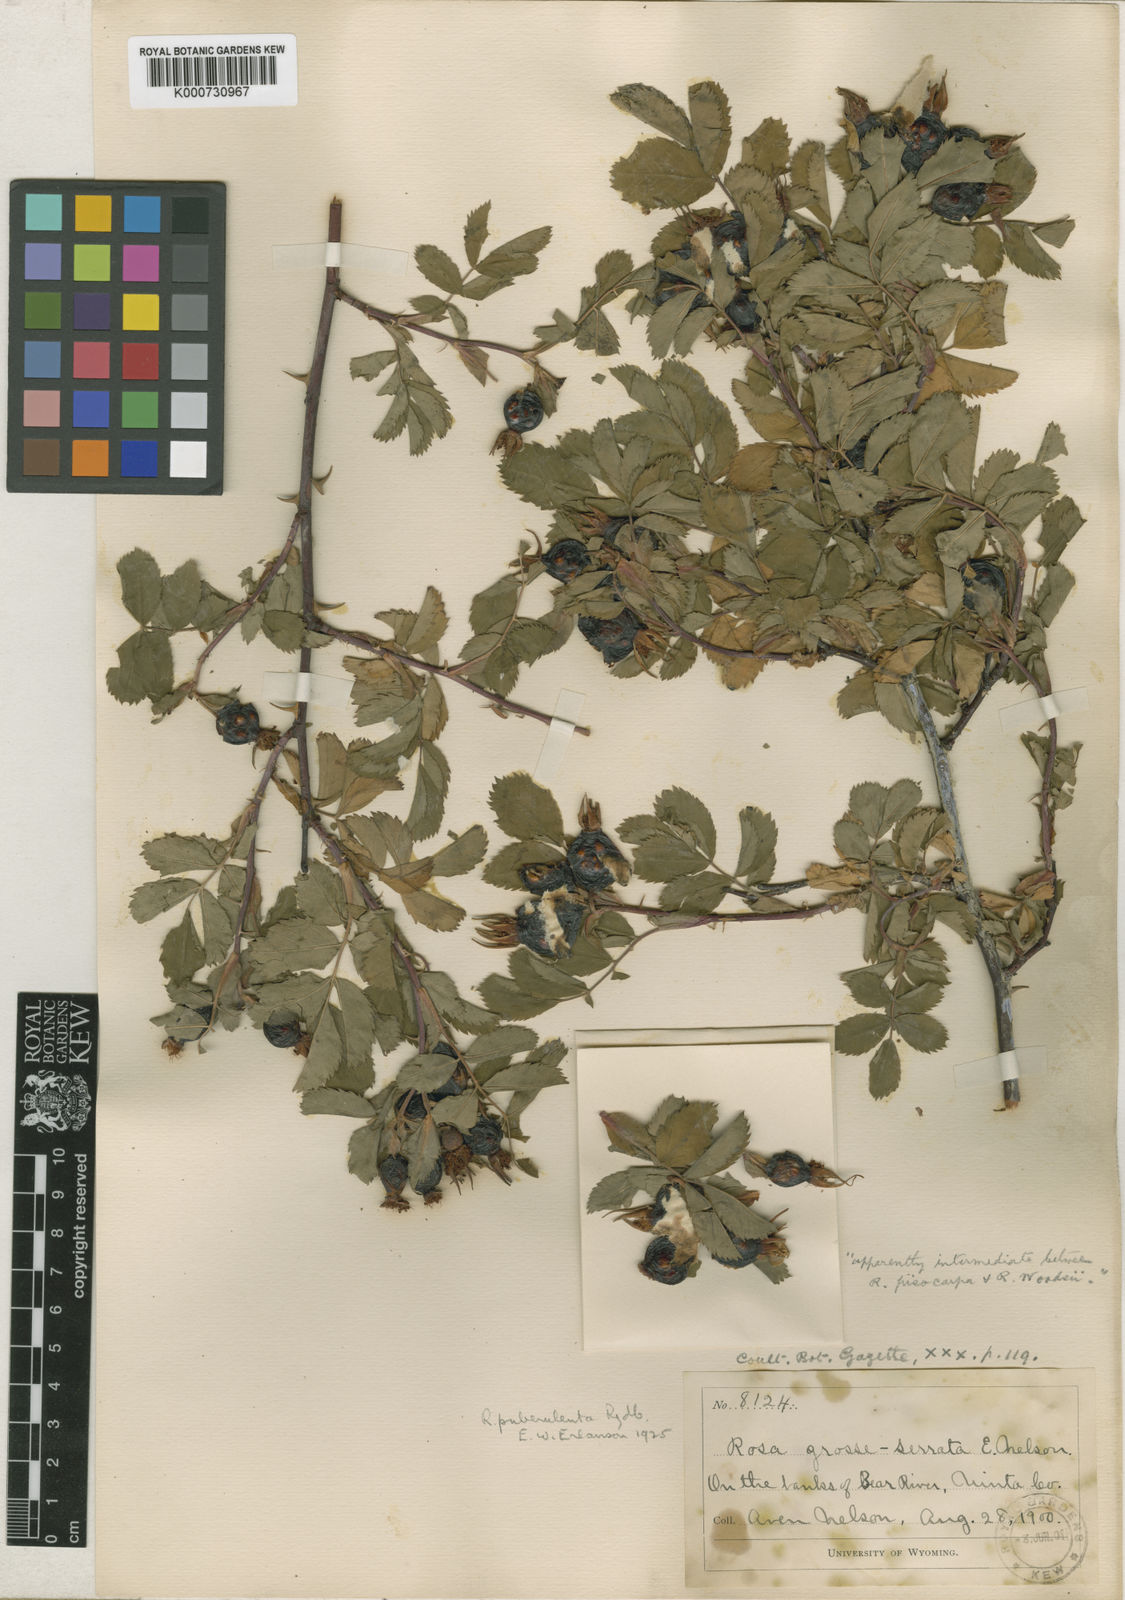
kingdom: Plantae
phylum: Tracheophyta
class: Magnoliopsida
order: Rosales
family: Rosaceae
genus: Rosa
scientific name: Rosa californica
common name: California rose
